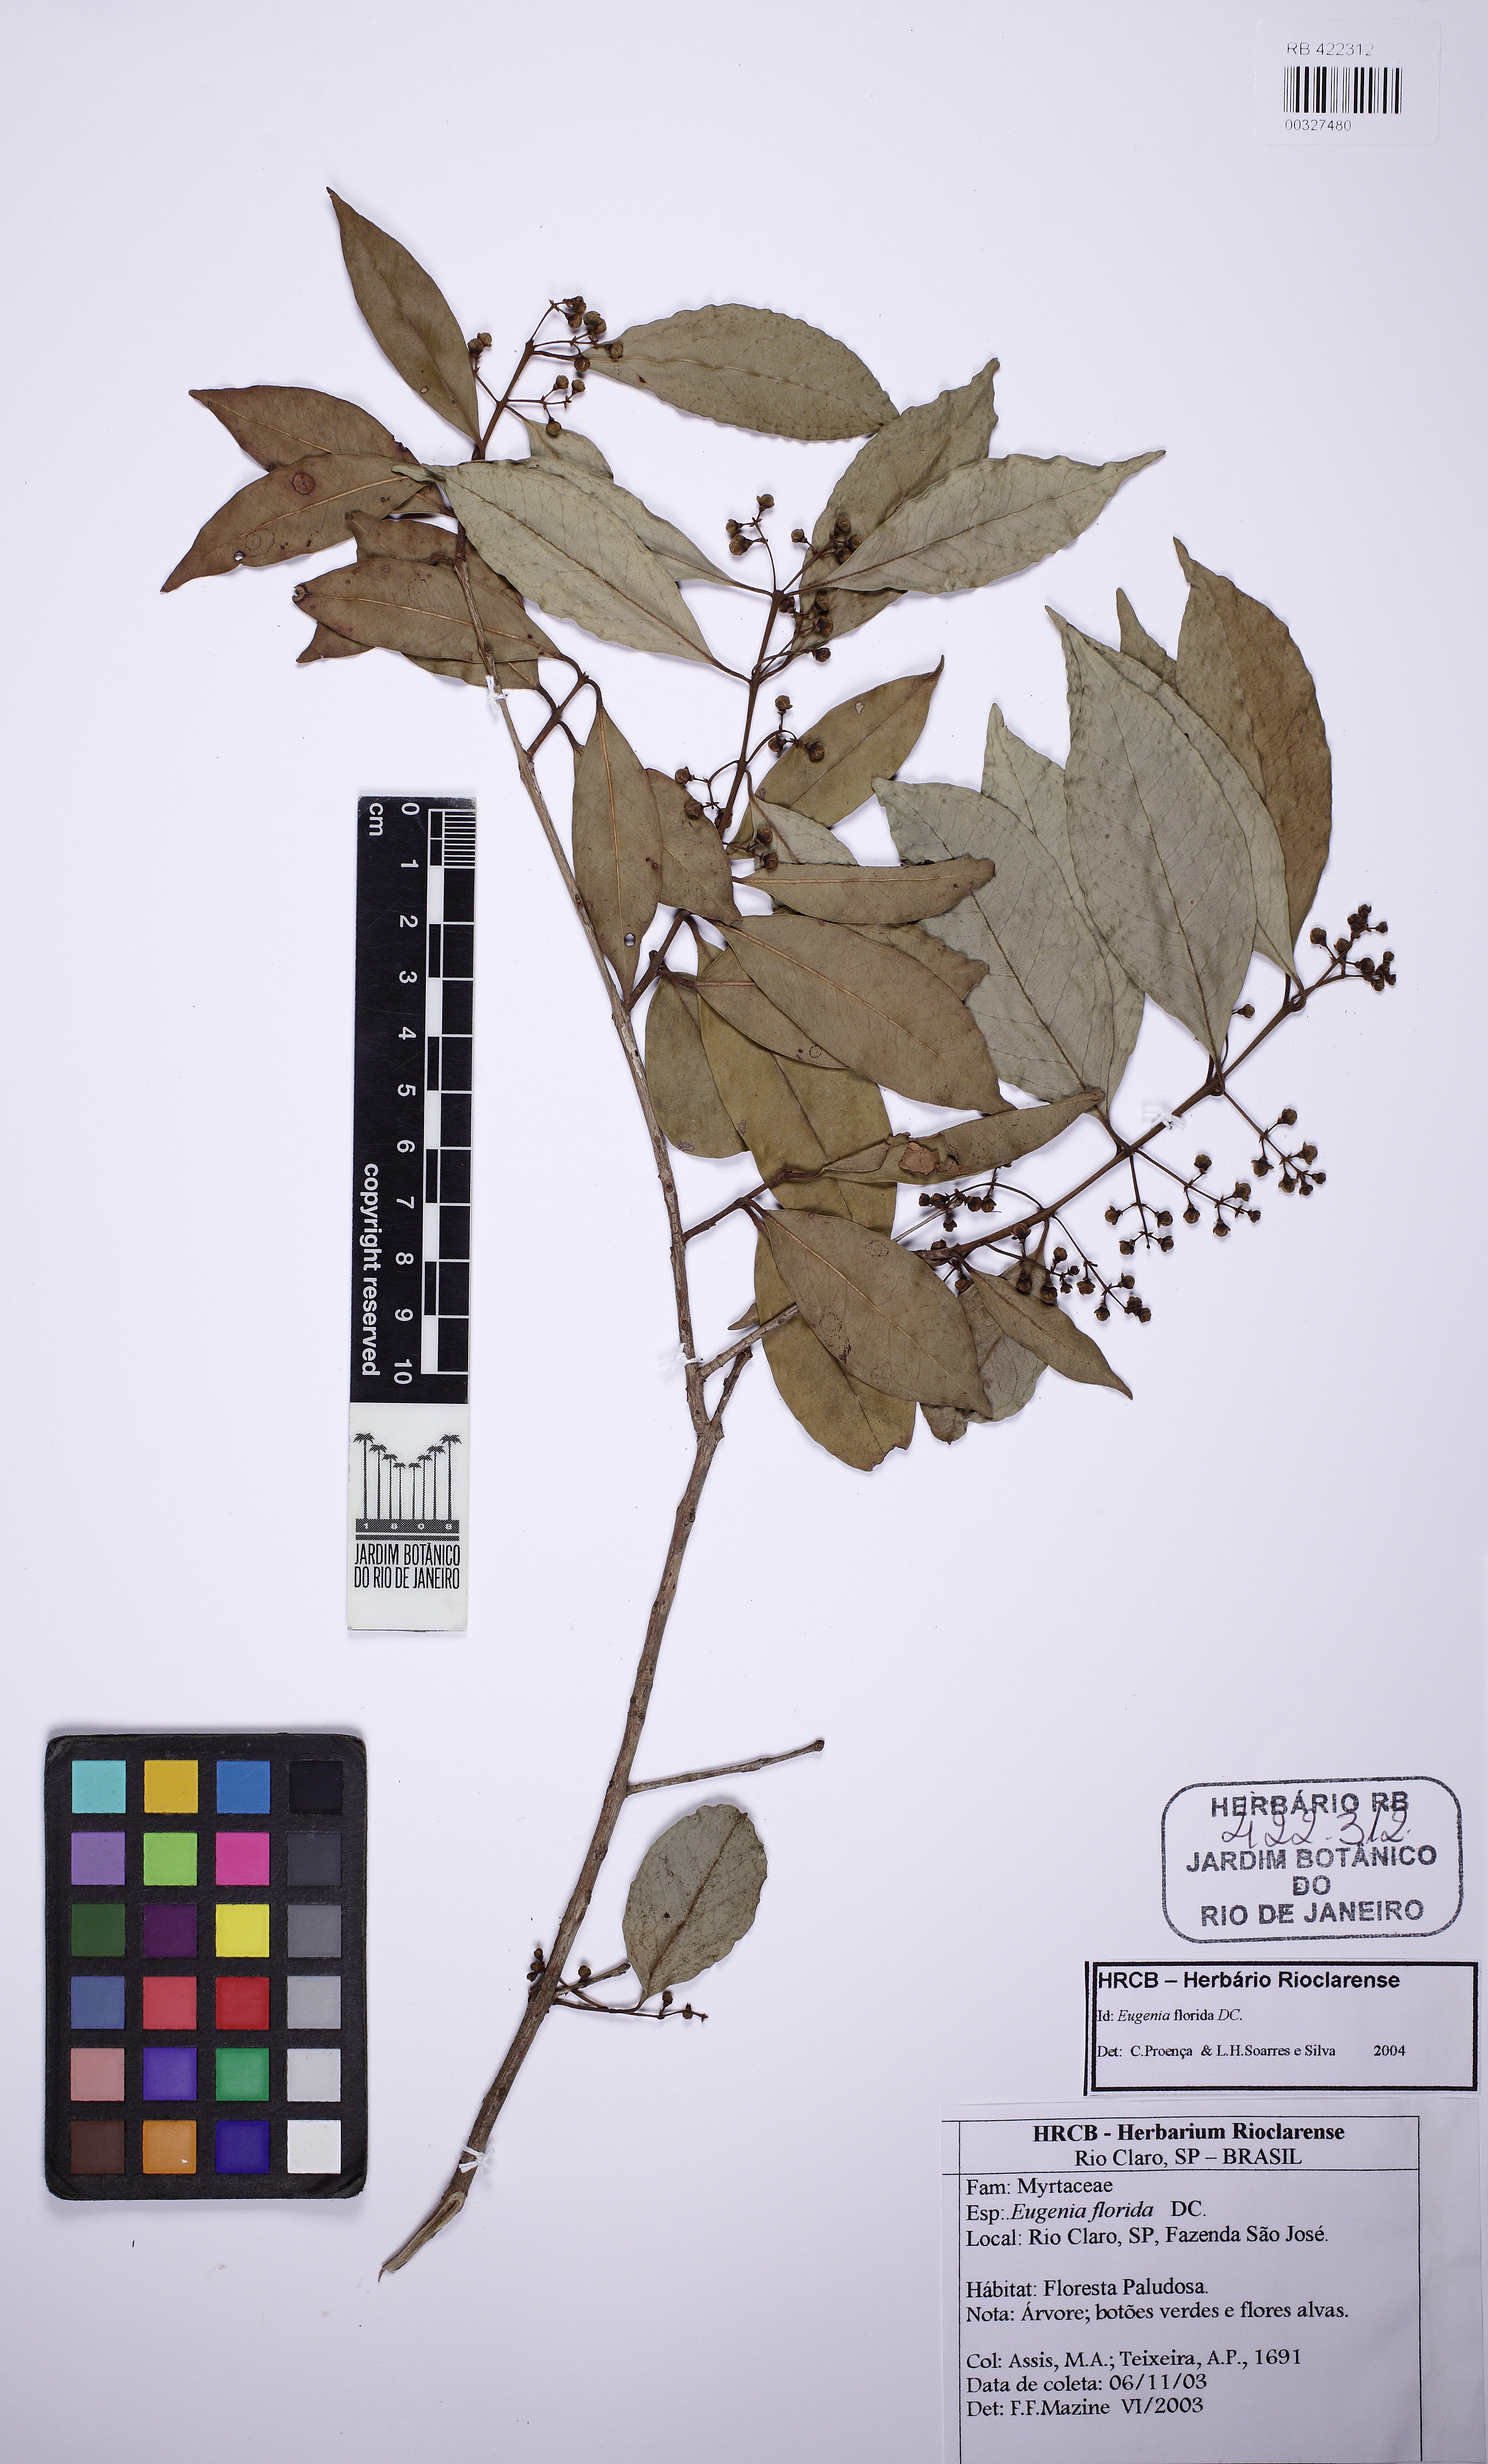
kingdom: Plantae
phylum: Tracheophyta
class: Magnoliopsida
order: Myrtales
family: Myrtaceae
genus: Eugenia
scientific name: Eugenia florida
